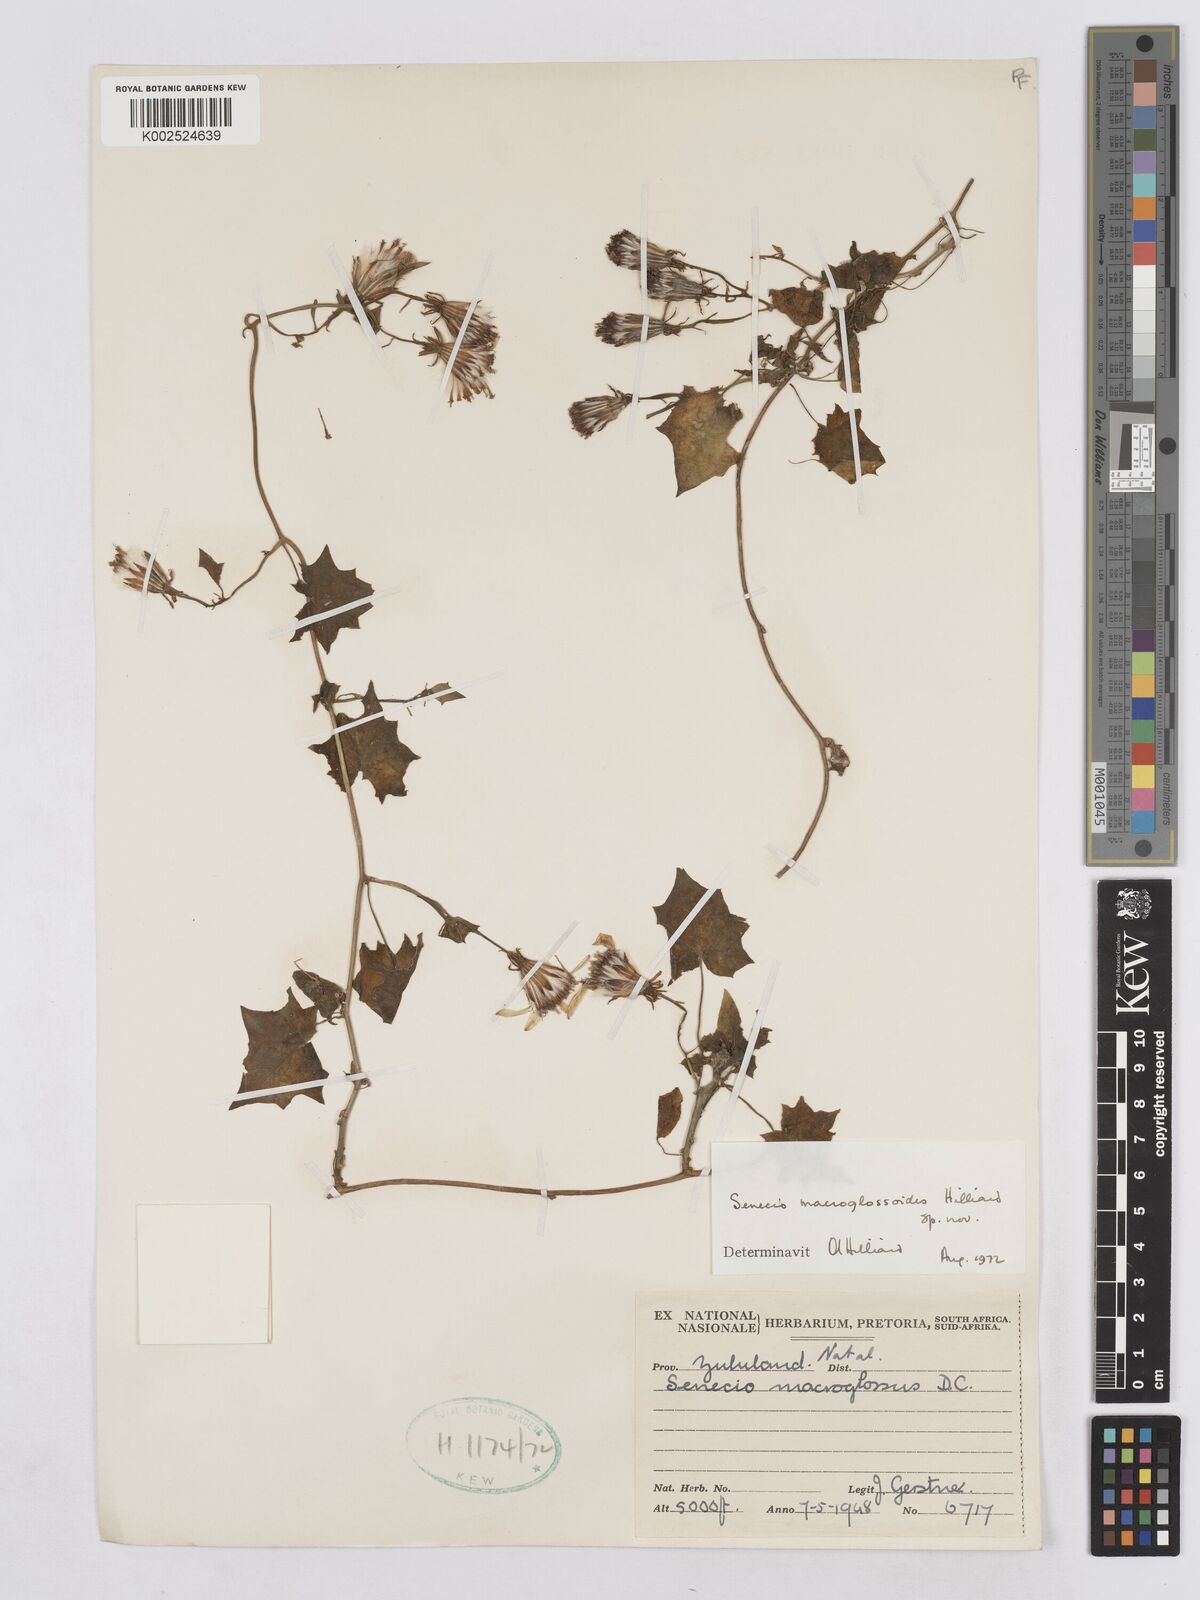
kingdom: Plantae
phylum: Tracheophyta
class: Magnoliopsida
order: Asterales
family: Asteraceae
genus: Senecio
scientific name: Senecio macroglossoides
